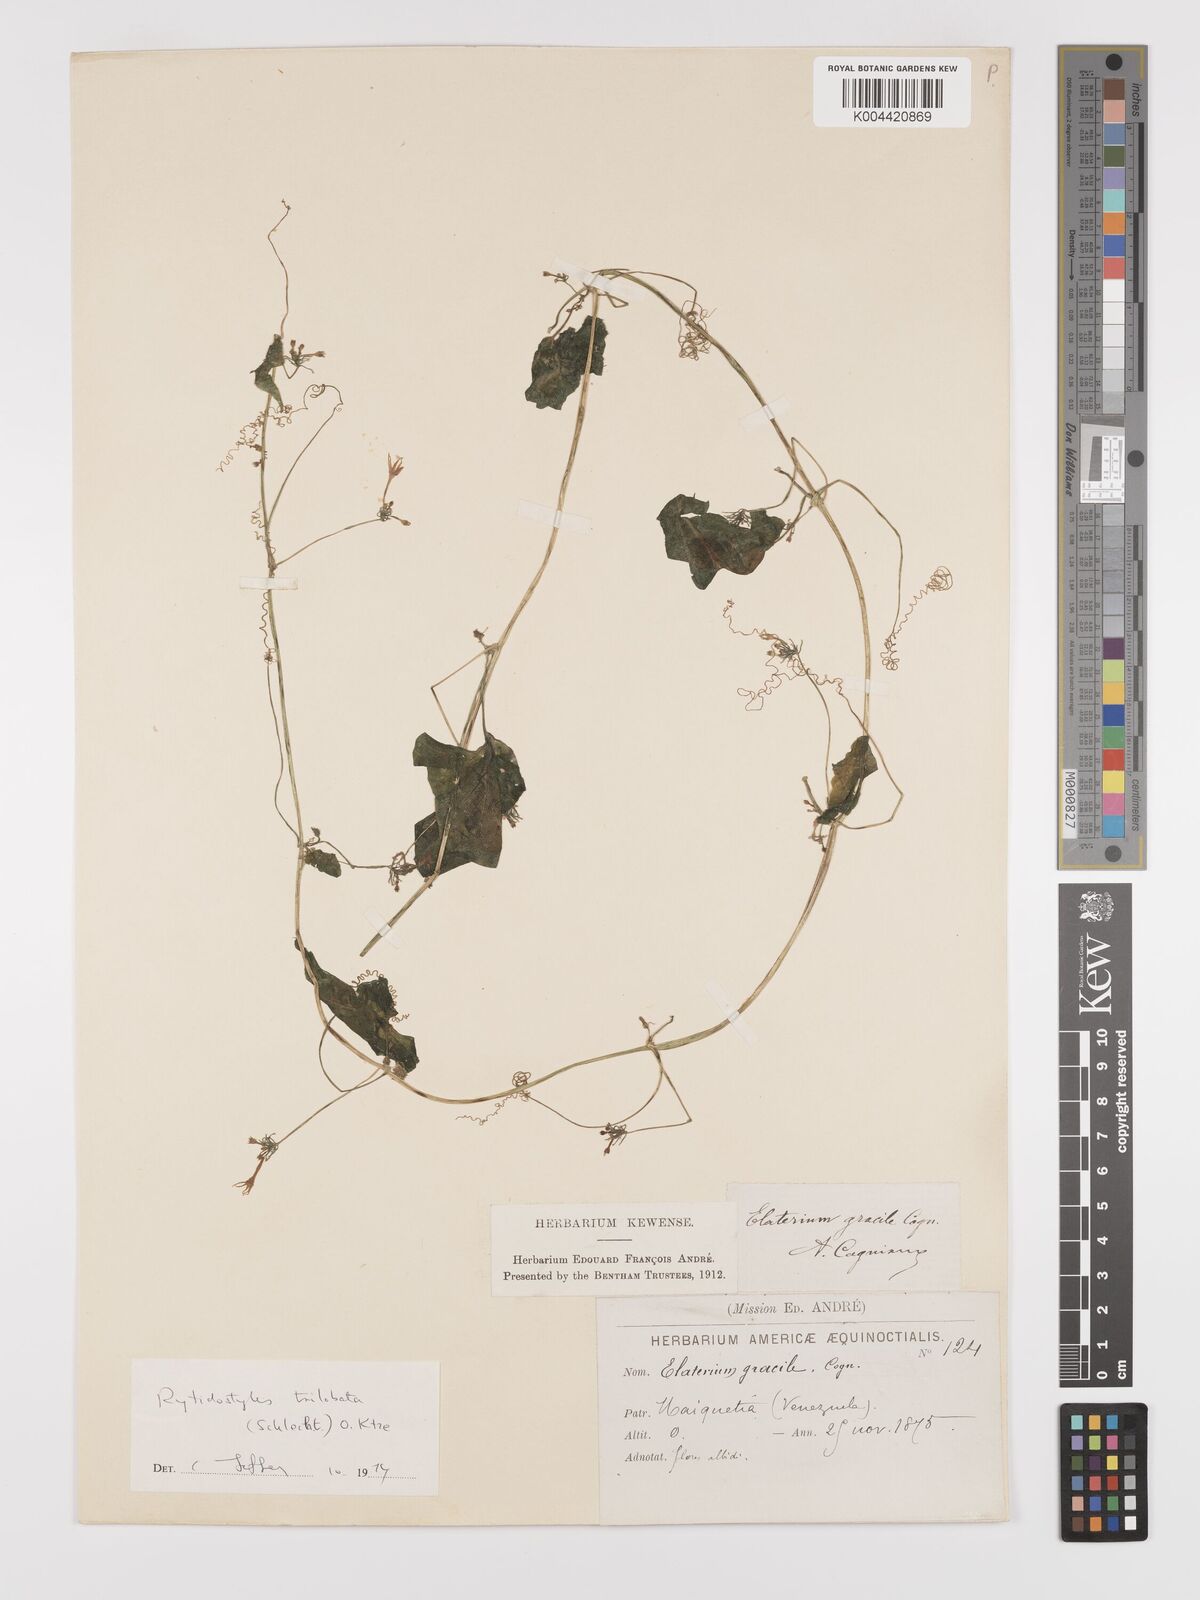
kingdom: Plantae
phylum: Tracheophyta
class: Magnoliopsida
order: Cucurbitales
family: Cucurbitaceae
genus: Cyclanthera
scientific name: Cyclanthera carthagenensis
